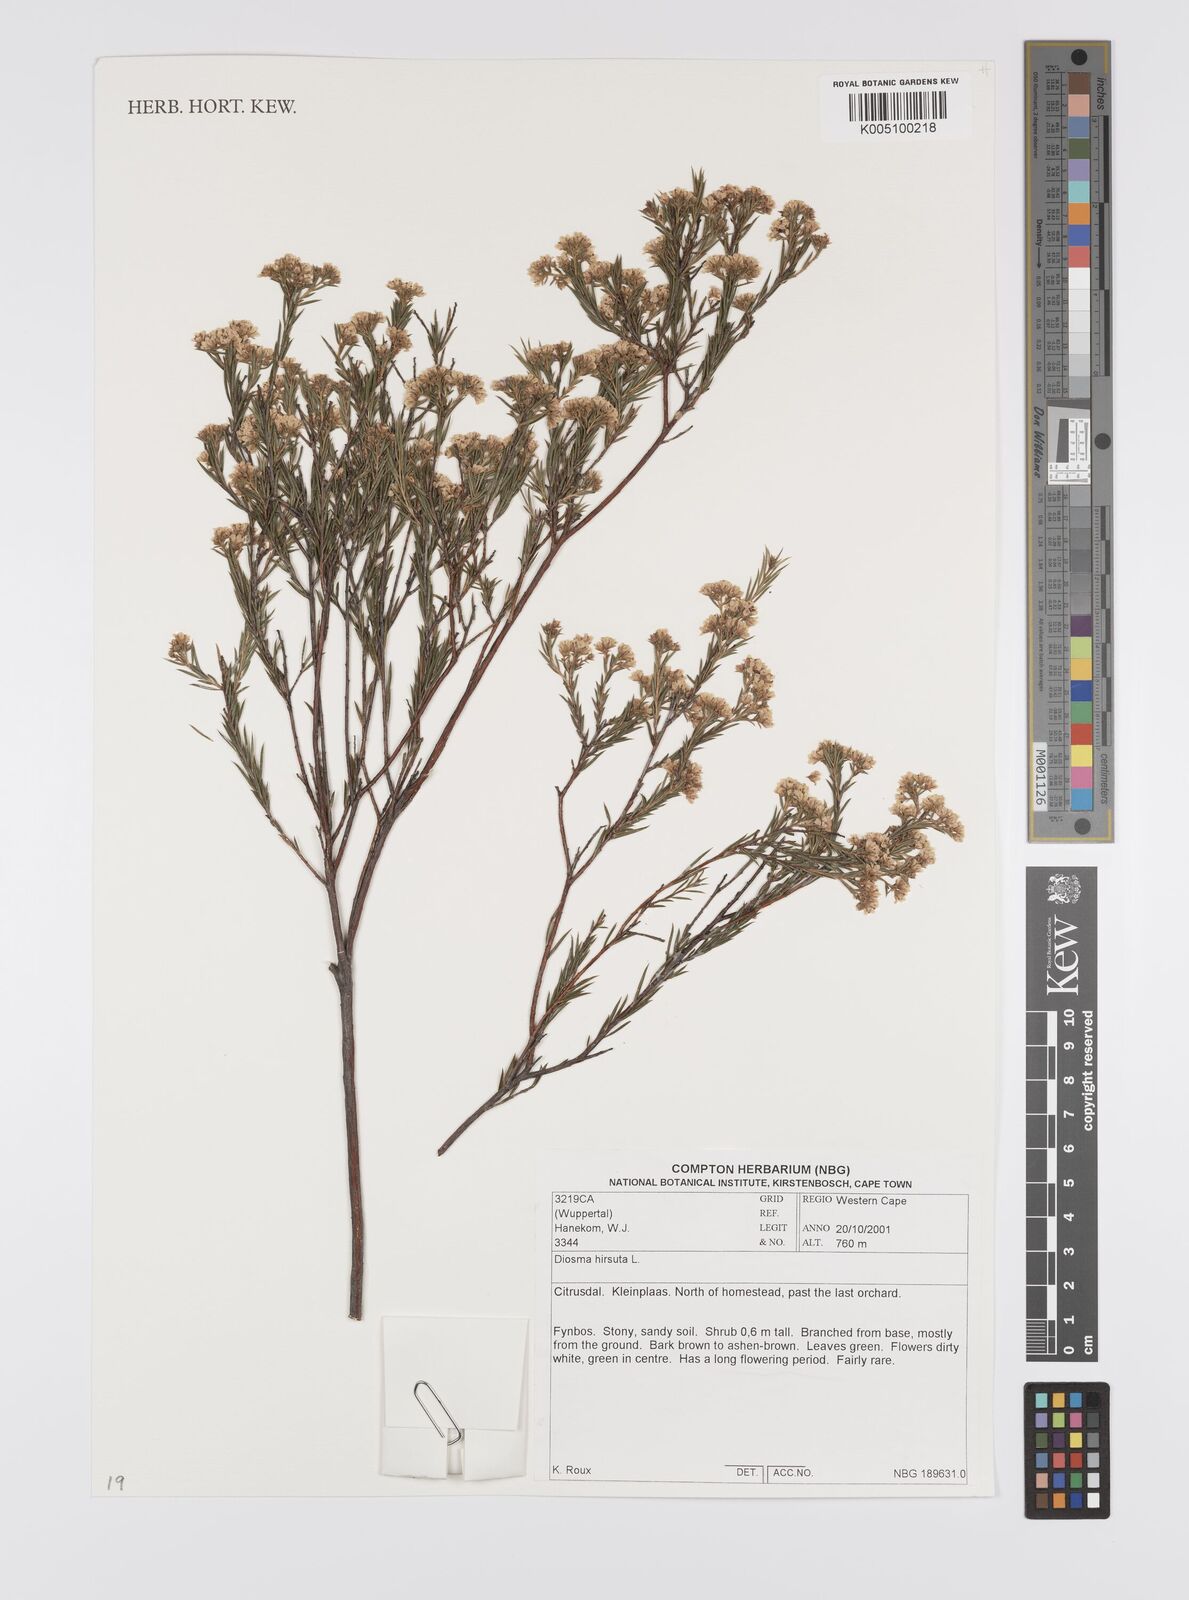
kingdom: Plantae
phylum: Tracheophyta
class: Magnoliopsida
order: Sapindales
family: Rutaceae
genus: Diosma
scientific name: Diosma hirsuta
